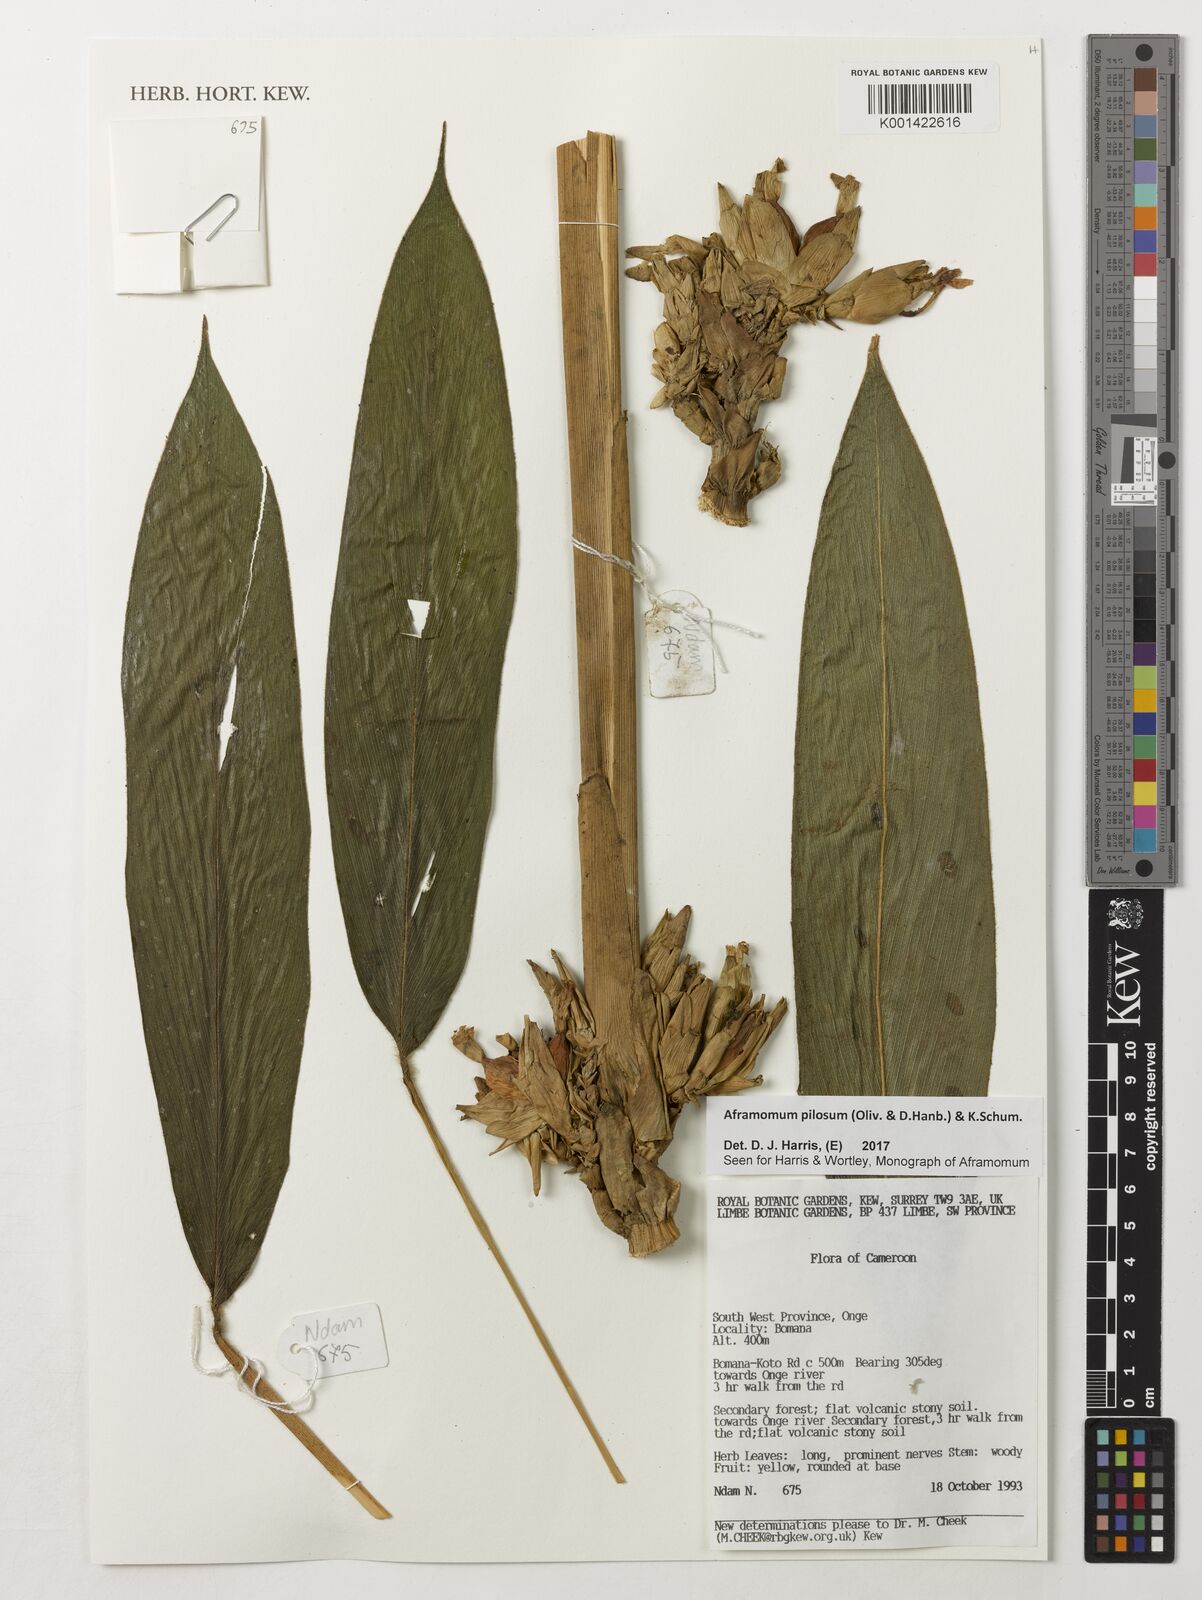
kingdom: Plantae
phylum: Tracheophyta
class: Liliopsida
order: Zingiberales
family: Zingiberaceae
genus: Aframomum
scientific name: Aframomum pilosum
